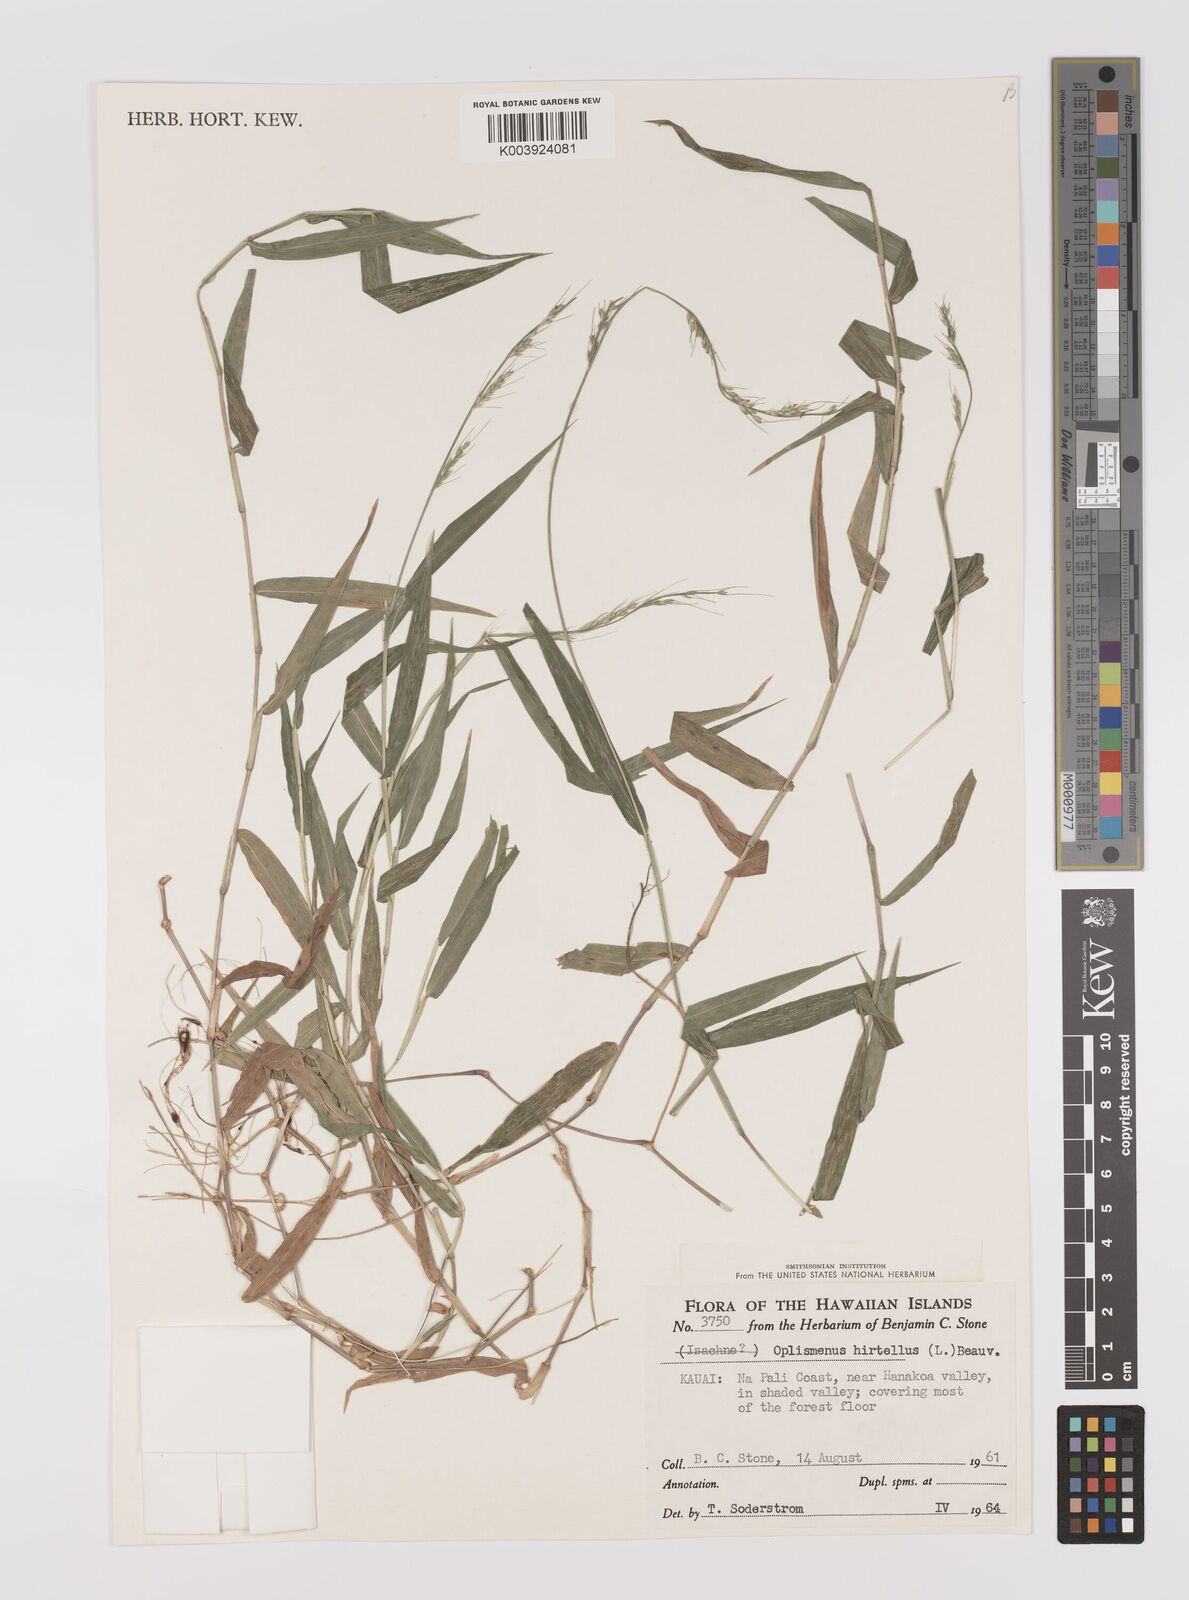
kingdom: Plantae
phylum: Tracheophyta
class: Liliopsida
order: Poales
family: Poaceae
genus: Oplismenus
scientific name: Oplismenus hirtellus
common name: Basketgrass
